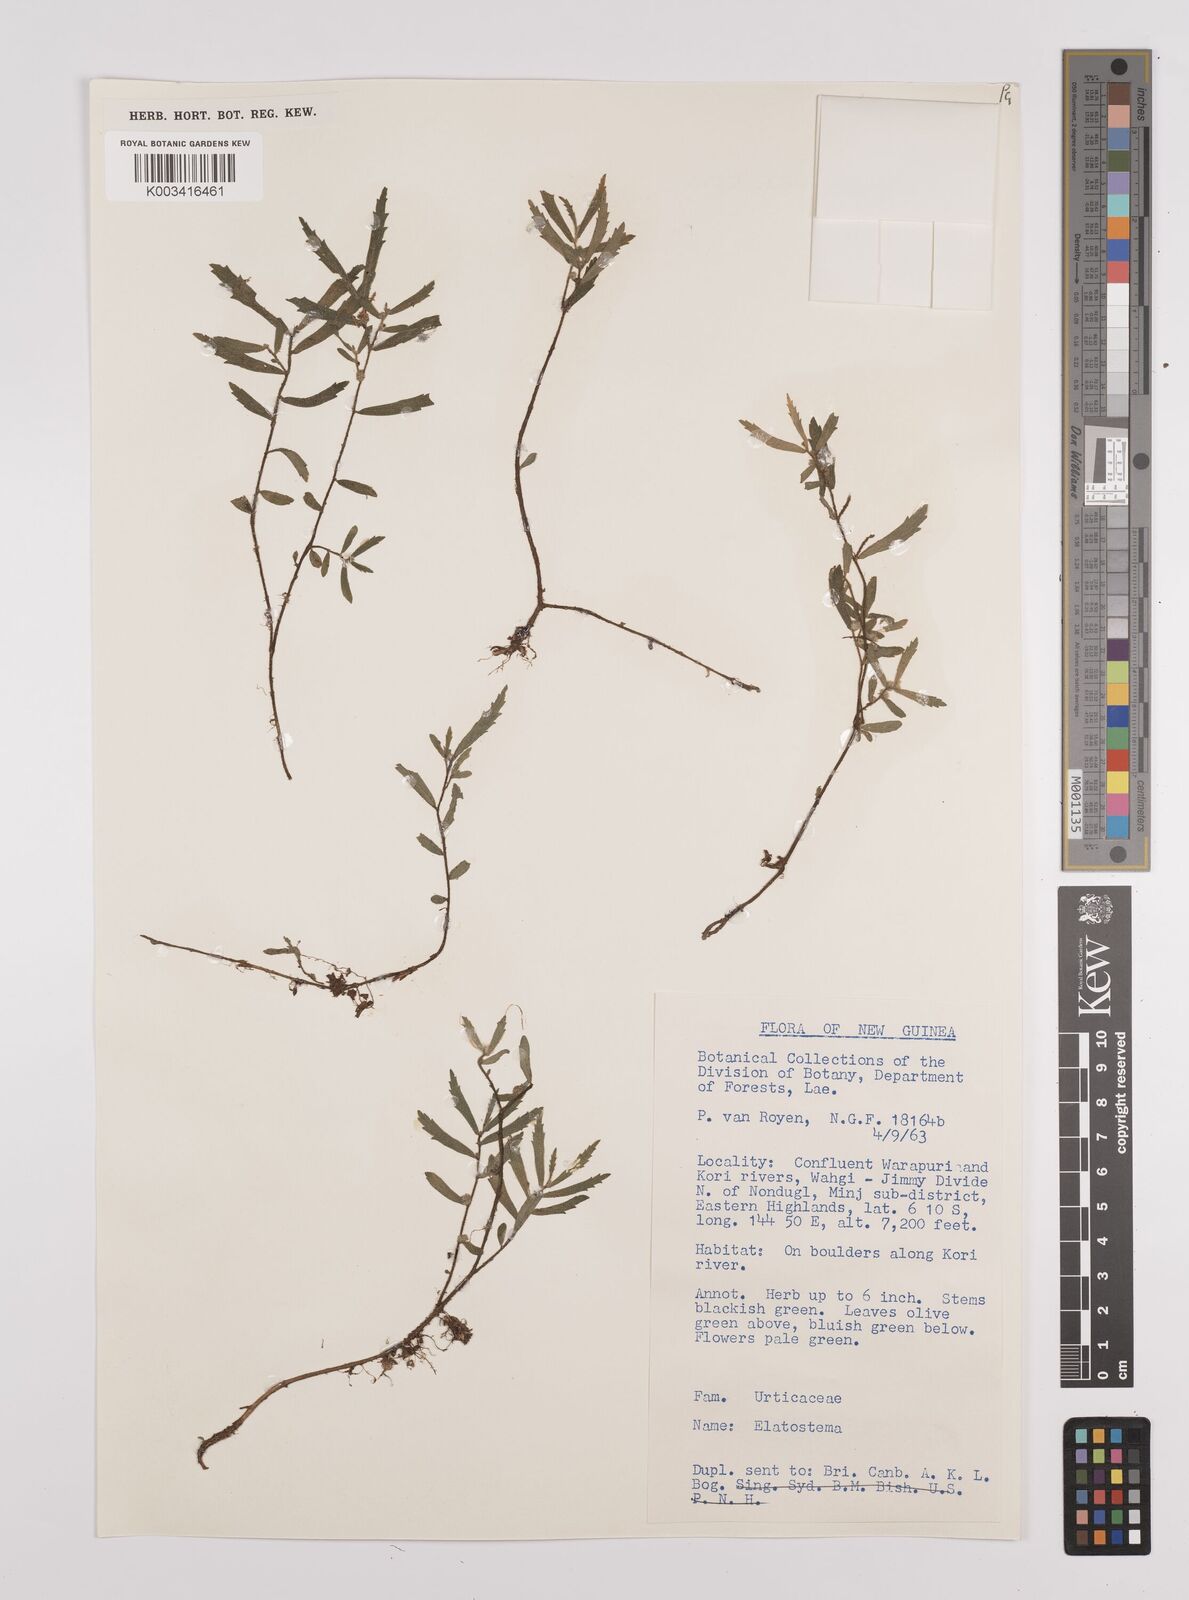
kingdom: Plantae
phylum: Tracheophyta
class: Magnoliopsida
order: Rosales
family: Urticaceae
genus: Elatostema
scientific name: Elatostema
